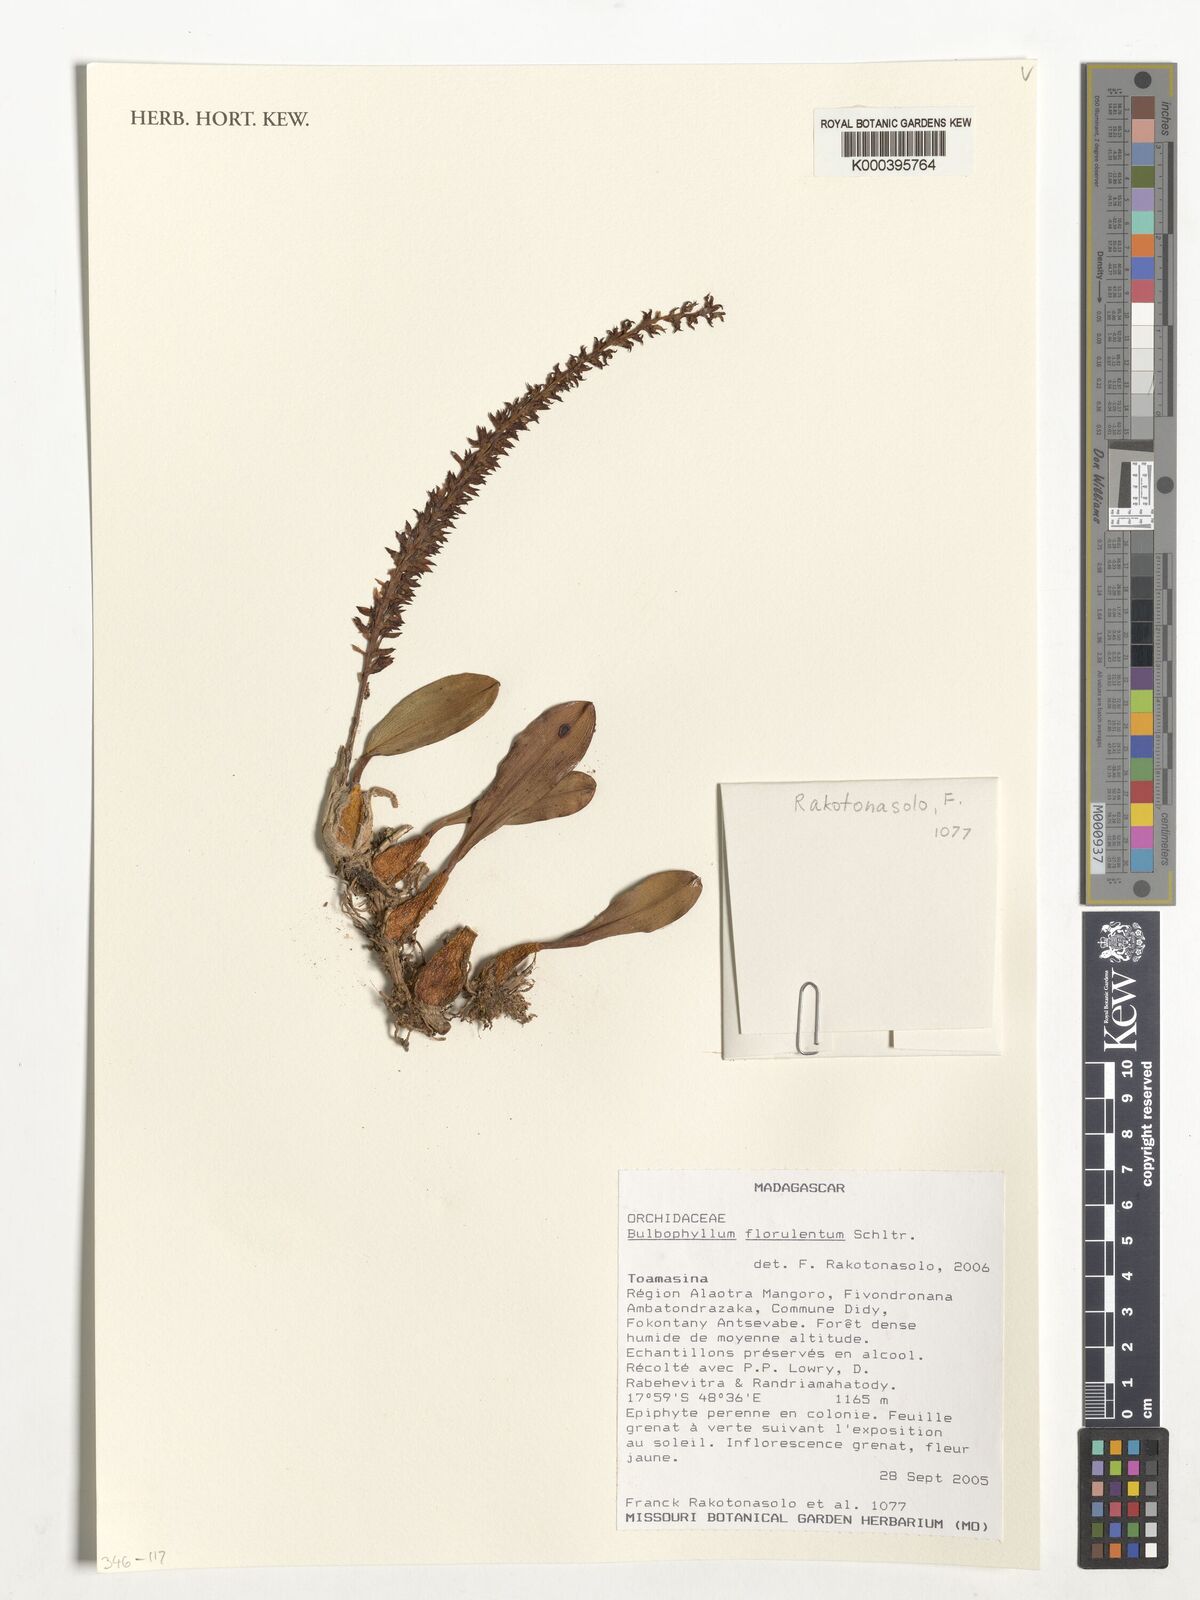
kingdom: Plantae
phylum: Tracheophyta
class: Liliopsida
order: Asparagales
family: Orchidaceae
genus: Bulbophyllum
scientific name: Bulbophyllum florulentum
